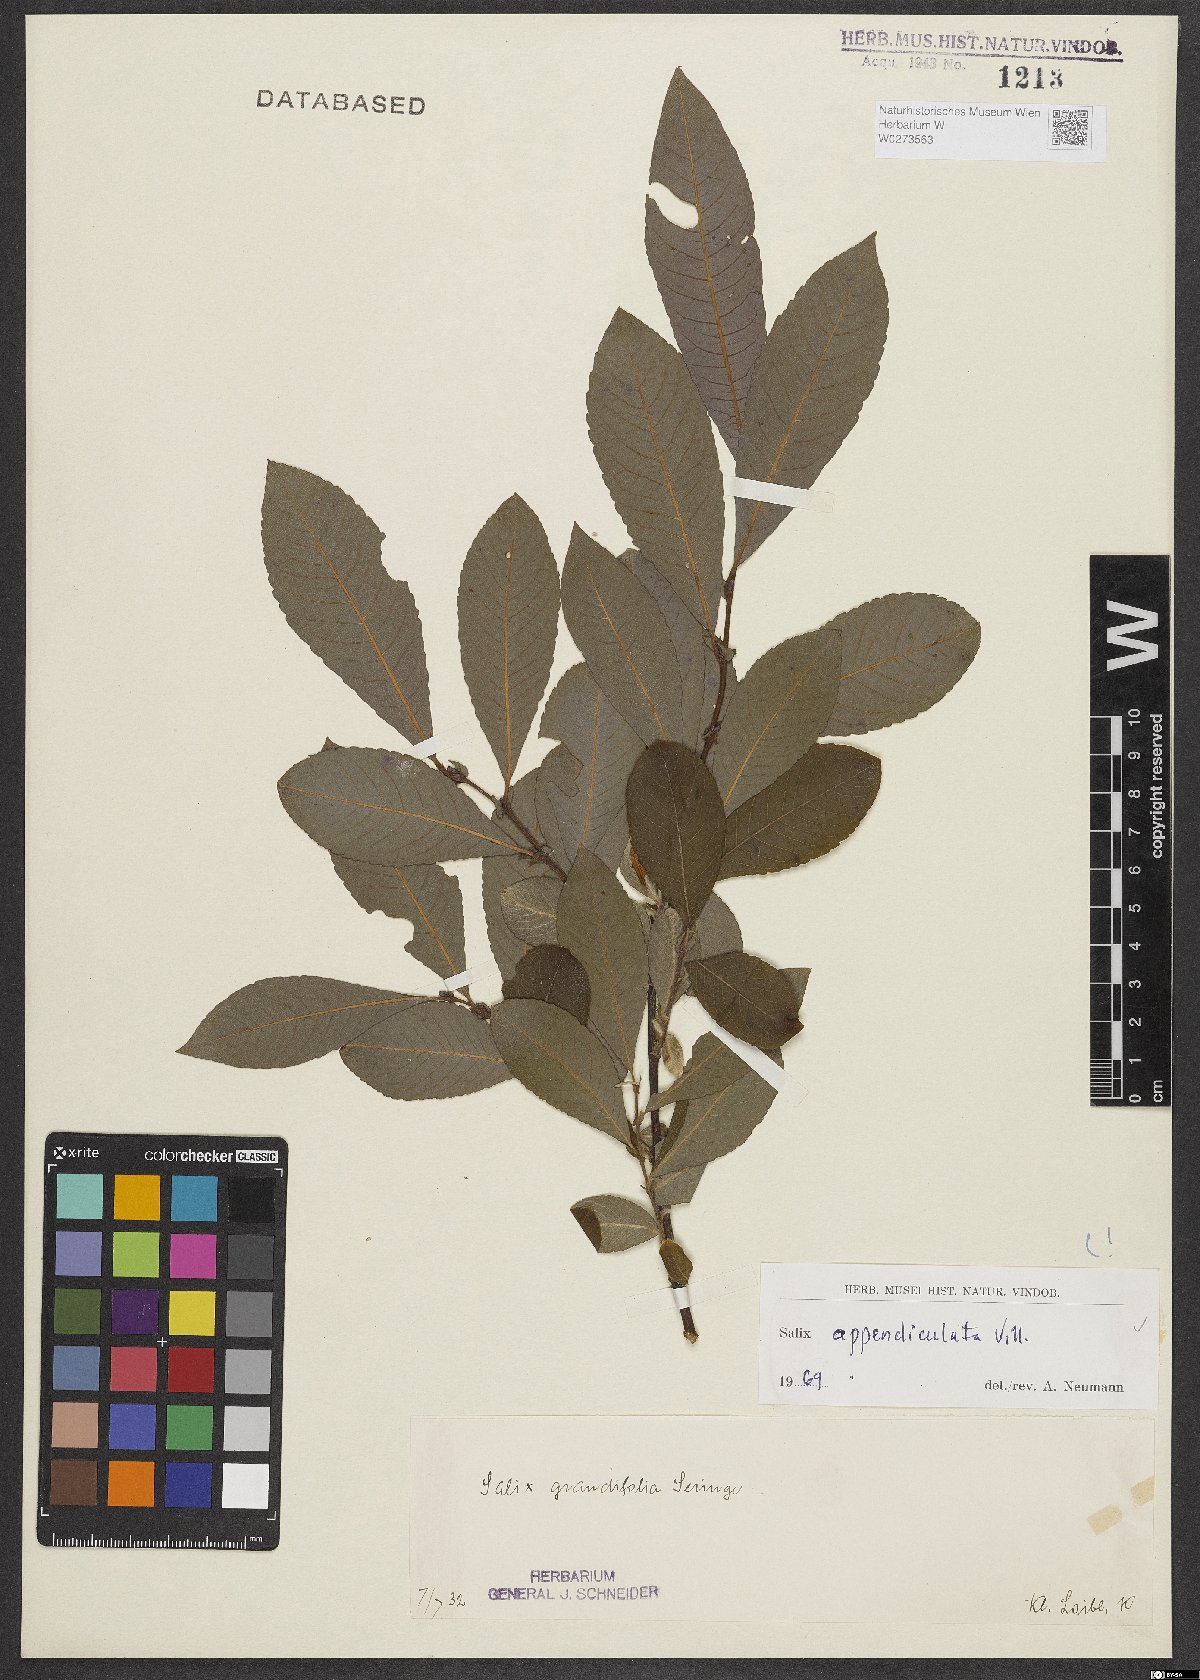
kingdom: Plantae
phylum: Tracheophyta
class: Magnoliopsida
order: Malpighiales
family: Salicaceae
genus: Salix
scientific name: Salix appendiculata
